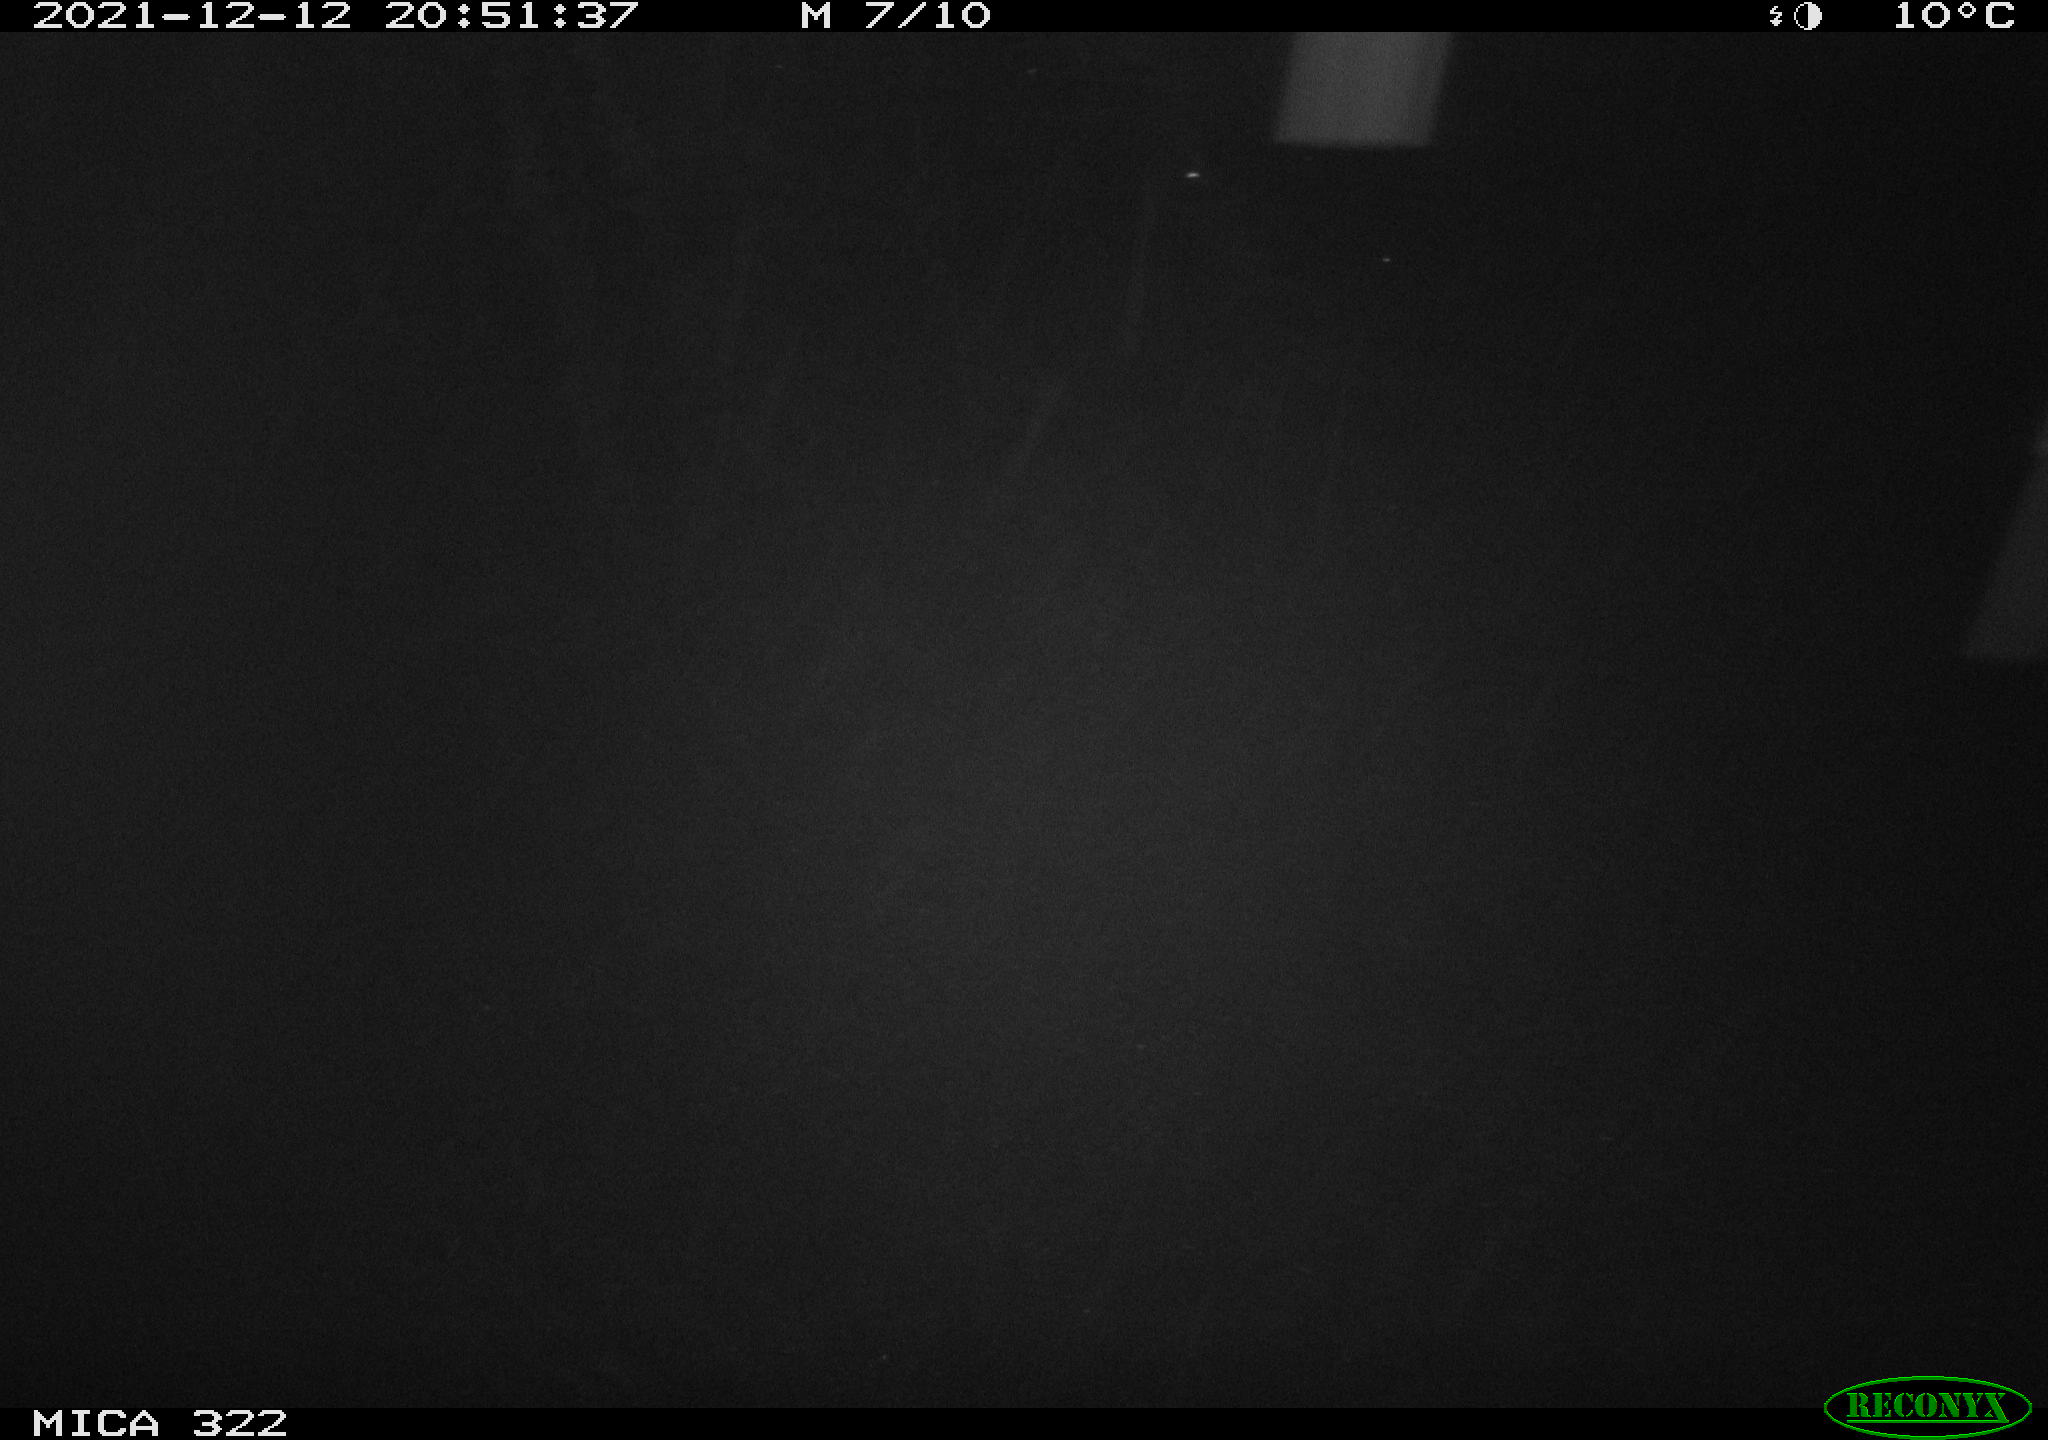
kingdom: Animalia
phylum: Chordata
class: Mammalia
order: Rodentia
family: Muridae
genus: Rattus
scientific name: Rattus norvegicus
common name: Brown rat
